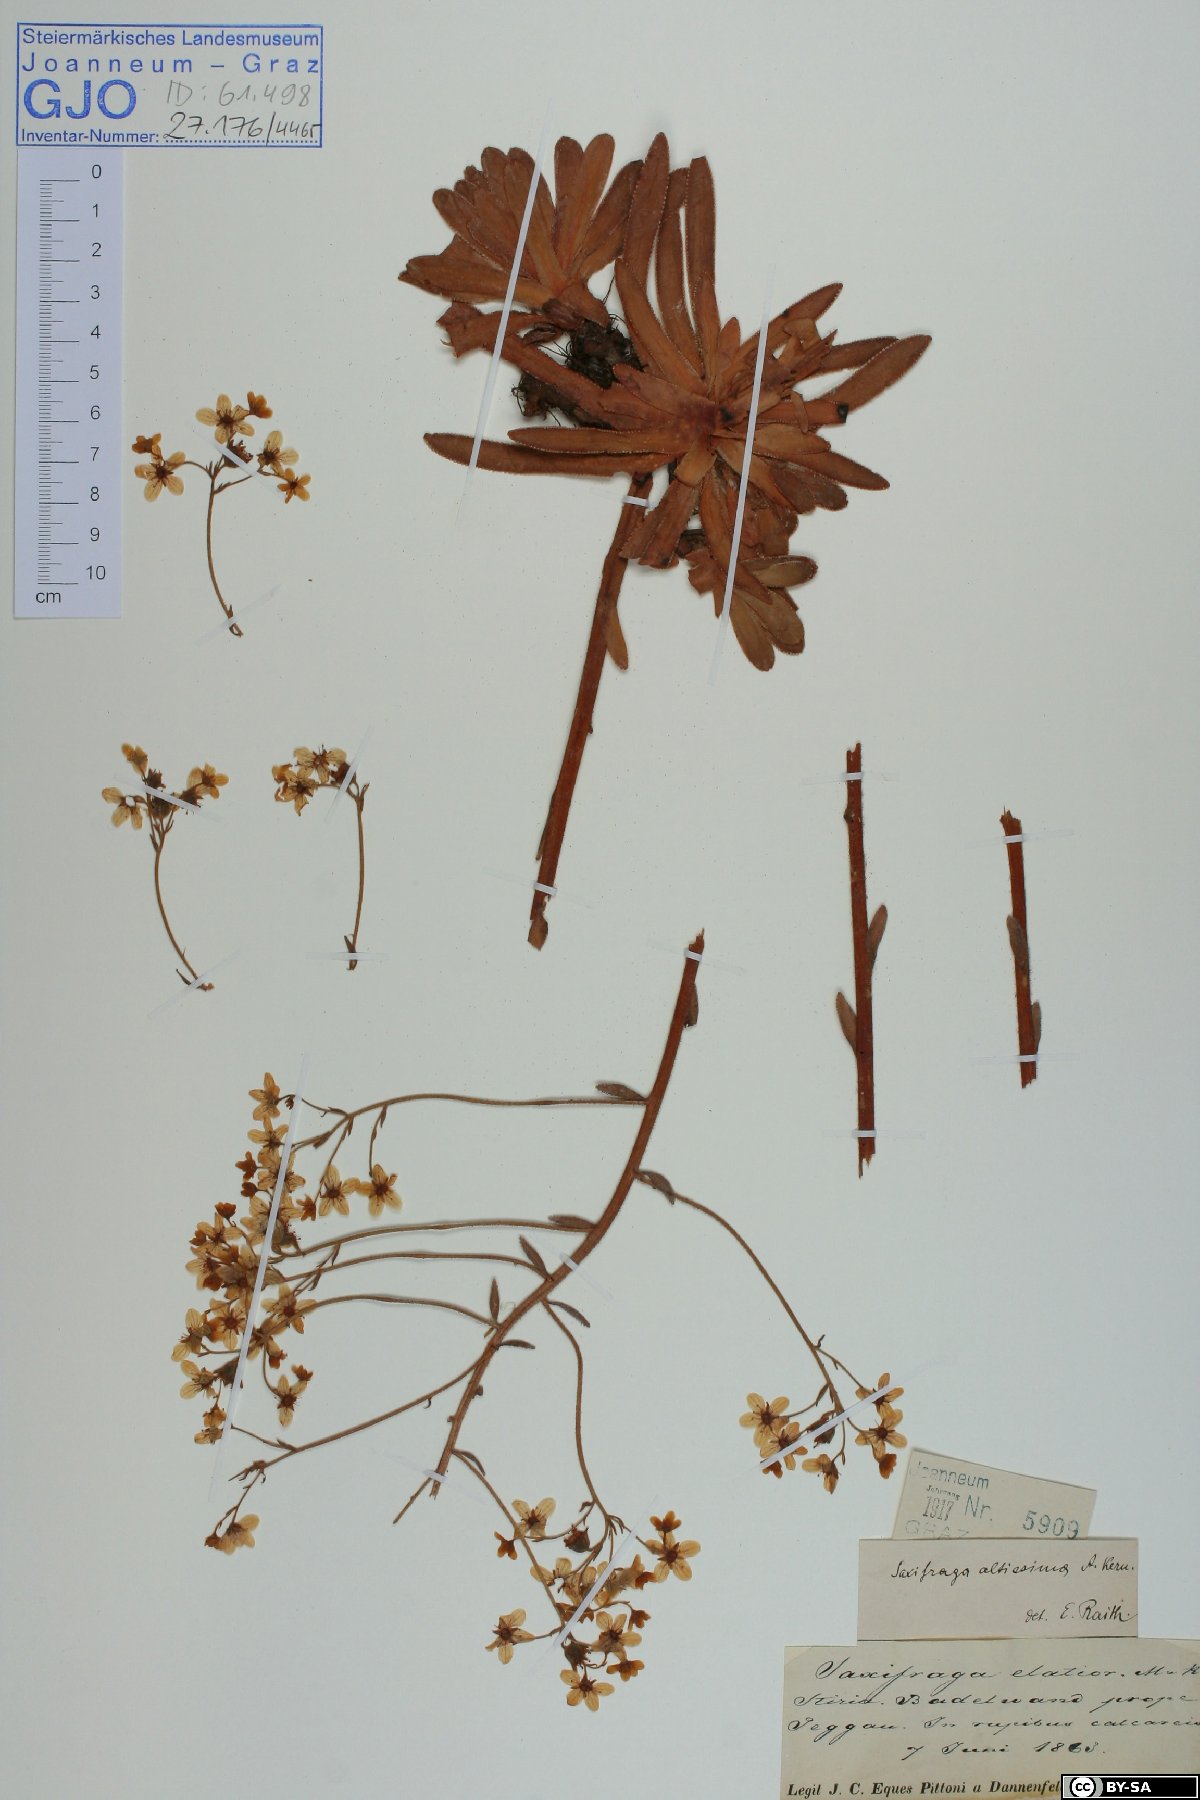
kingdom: Plantae
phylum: Tracheophyta
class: Magnoliopsida
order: Saxifragales
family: Saxifragaceae
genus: Saxifraga
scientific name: Saxifraga hostii
